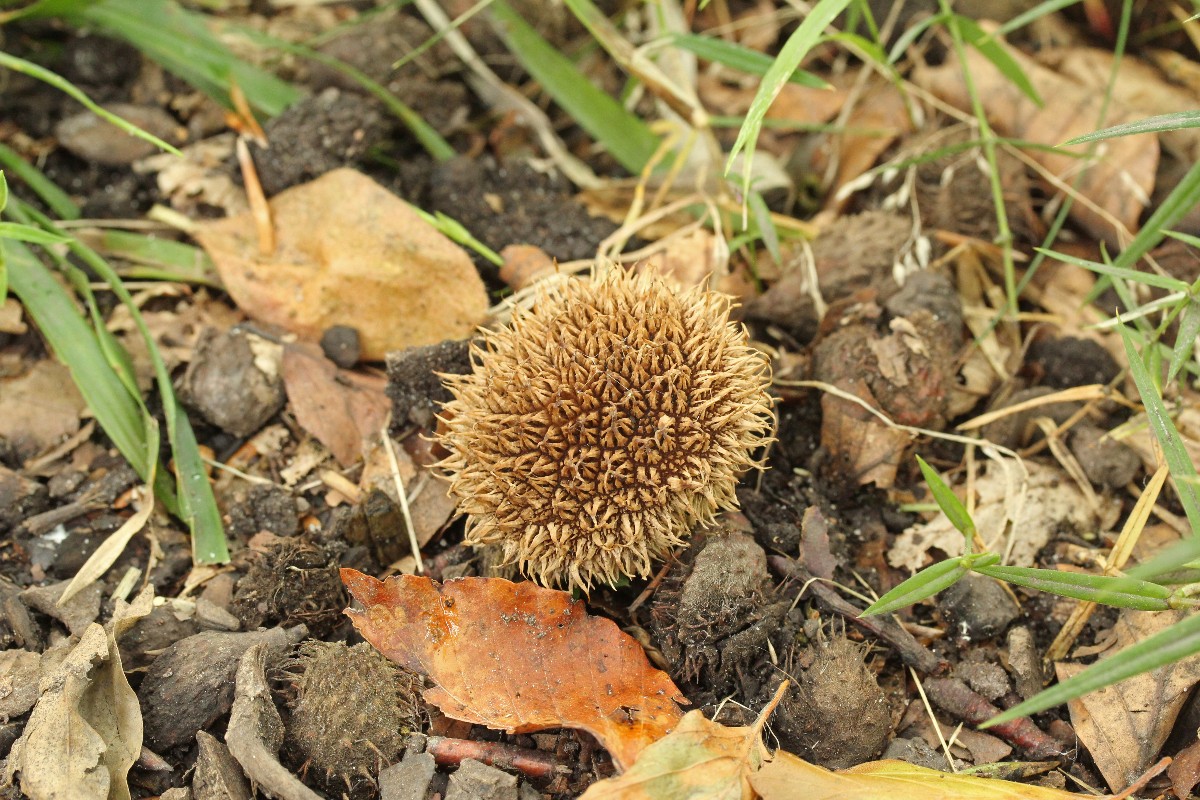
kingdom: Fungi
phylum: Basidiomycota
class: Agaricomycetes
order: Agaricales
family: Lycoperdaceae
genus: Lycoperdon
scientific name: Lycoperdon echinatum
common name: pindsvine-støvbold
